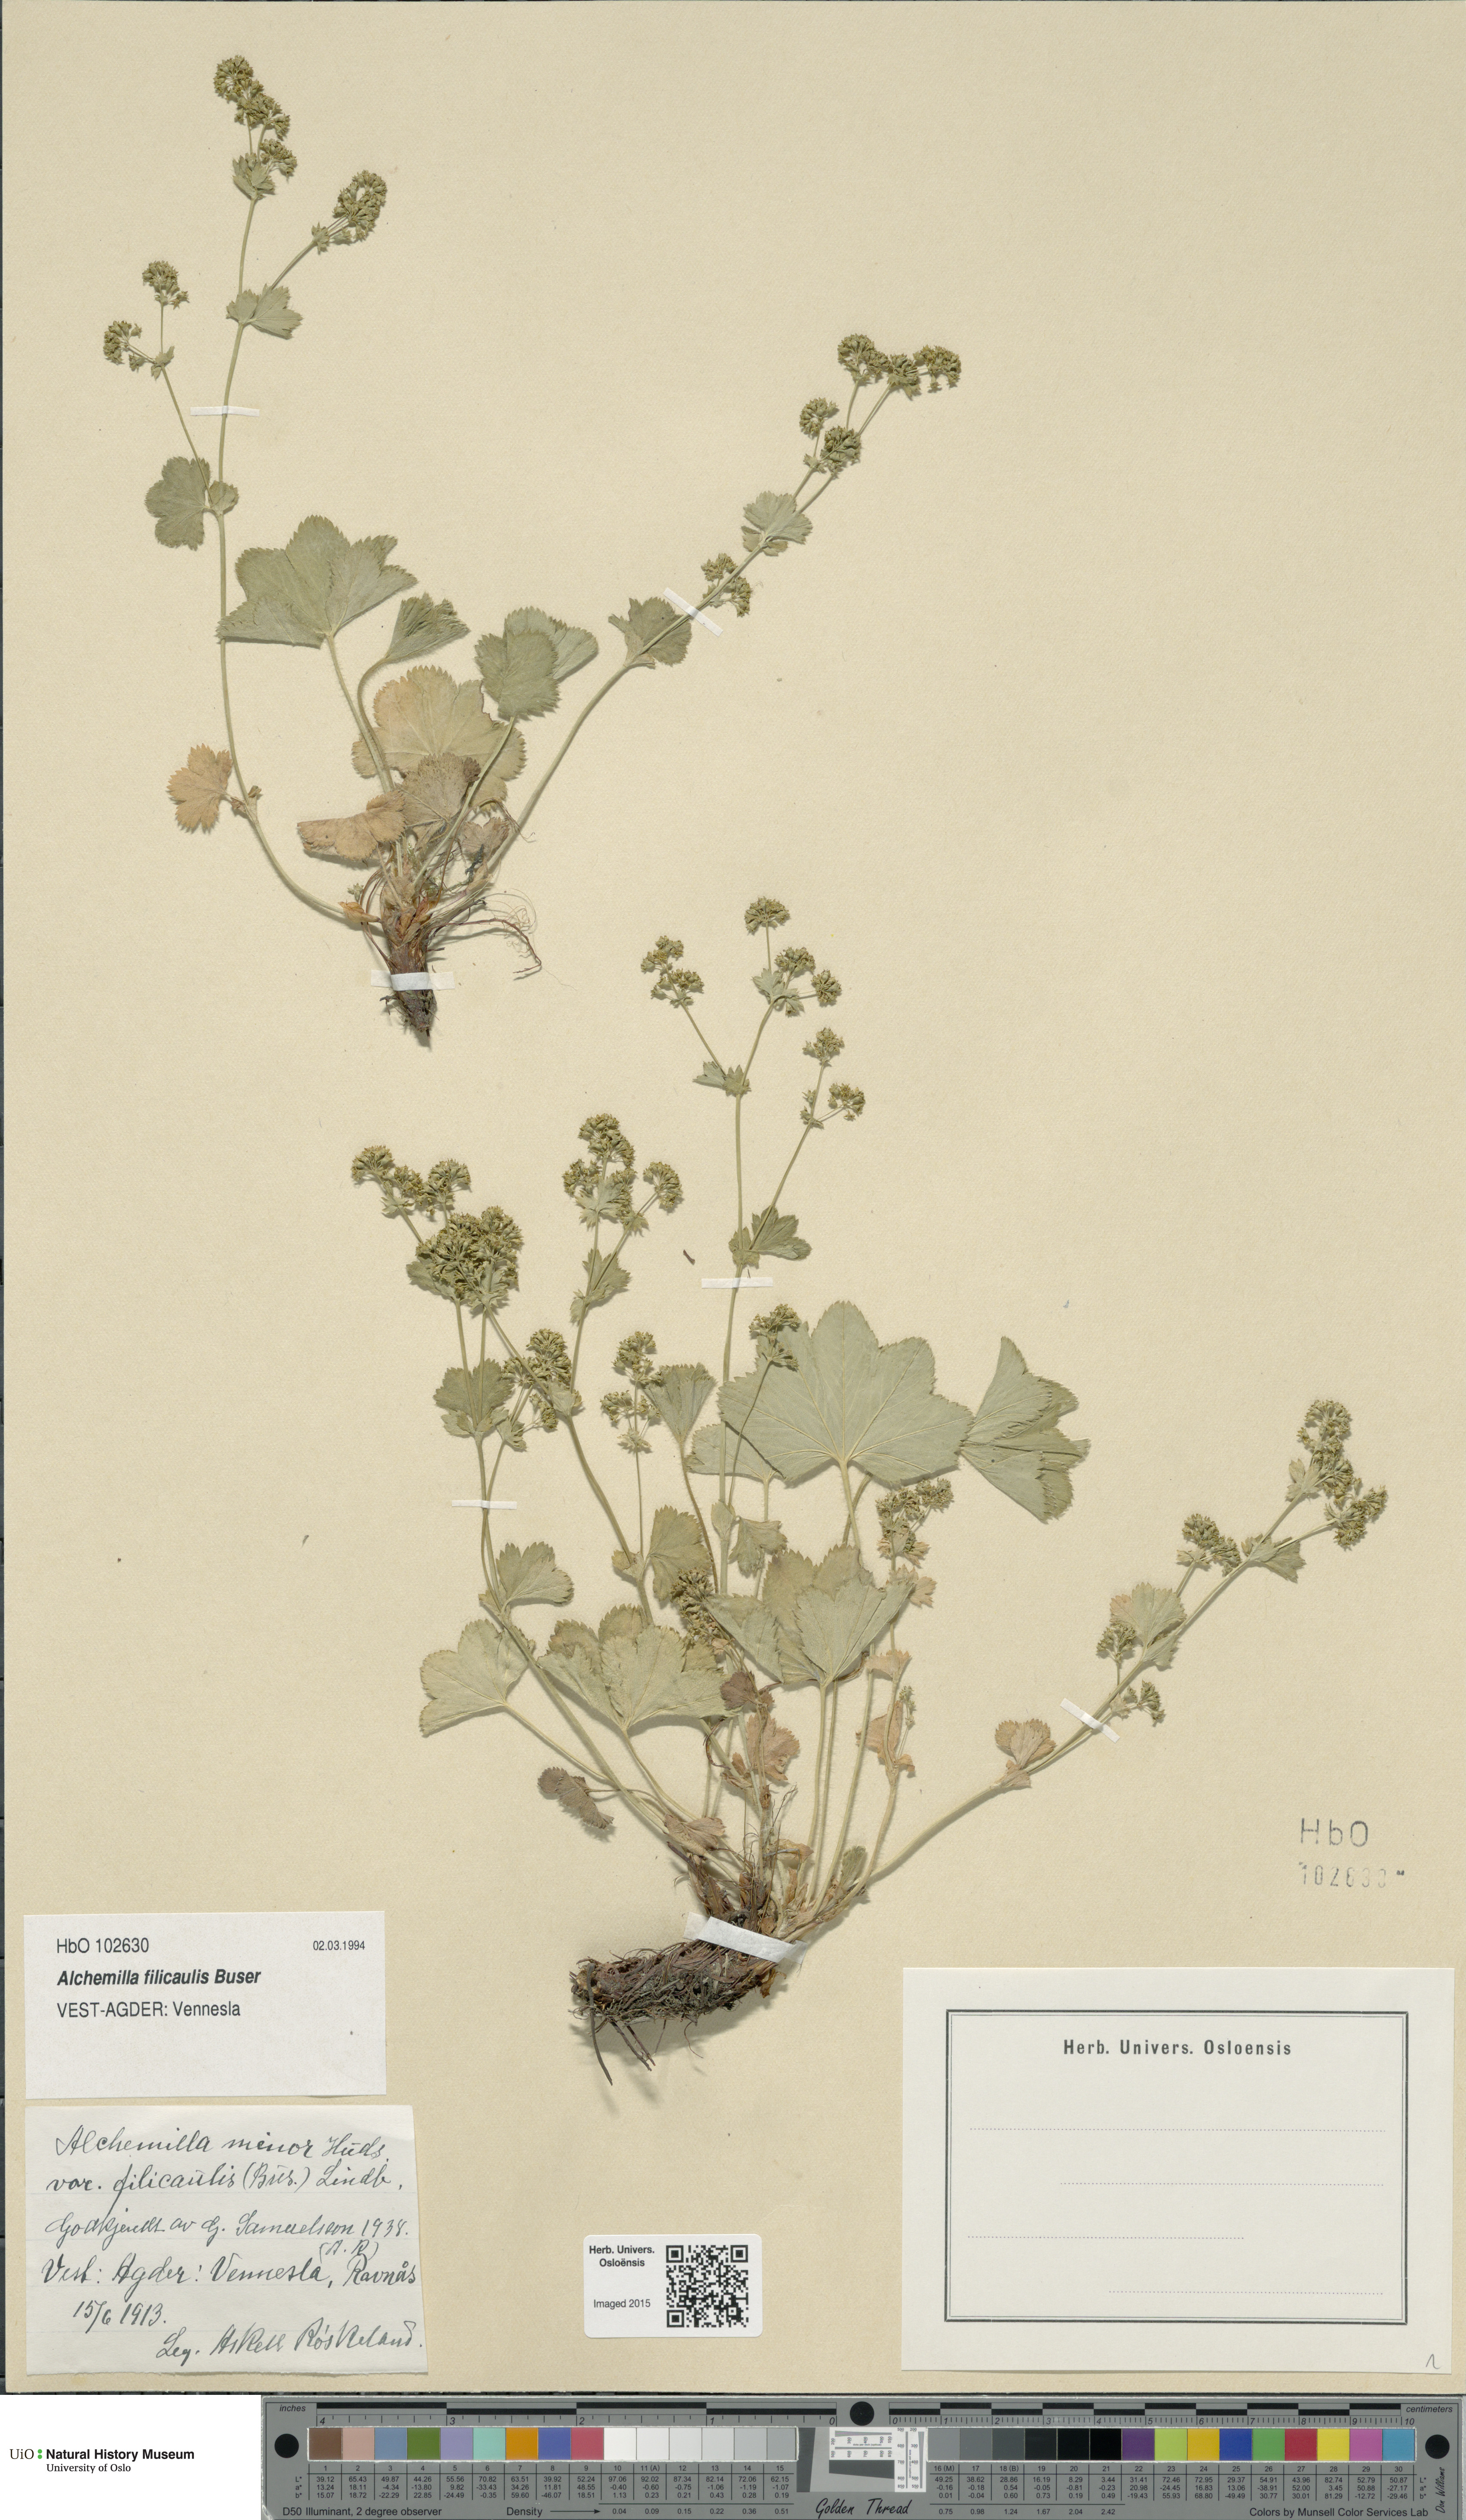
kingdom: Plantae
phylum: Tracheophyta
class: Magnoliopsida
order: Rosales
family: Rosaceae
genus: Alchemilla
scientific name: Alchemilla filicaulis
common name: Hairy lady's-mantle
